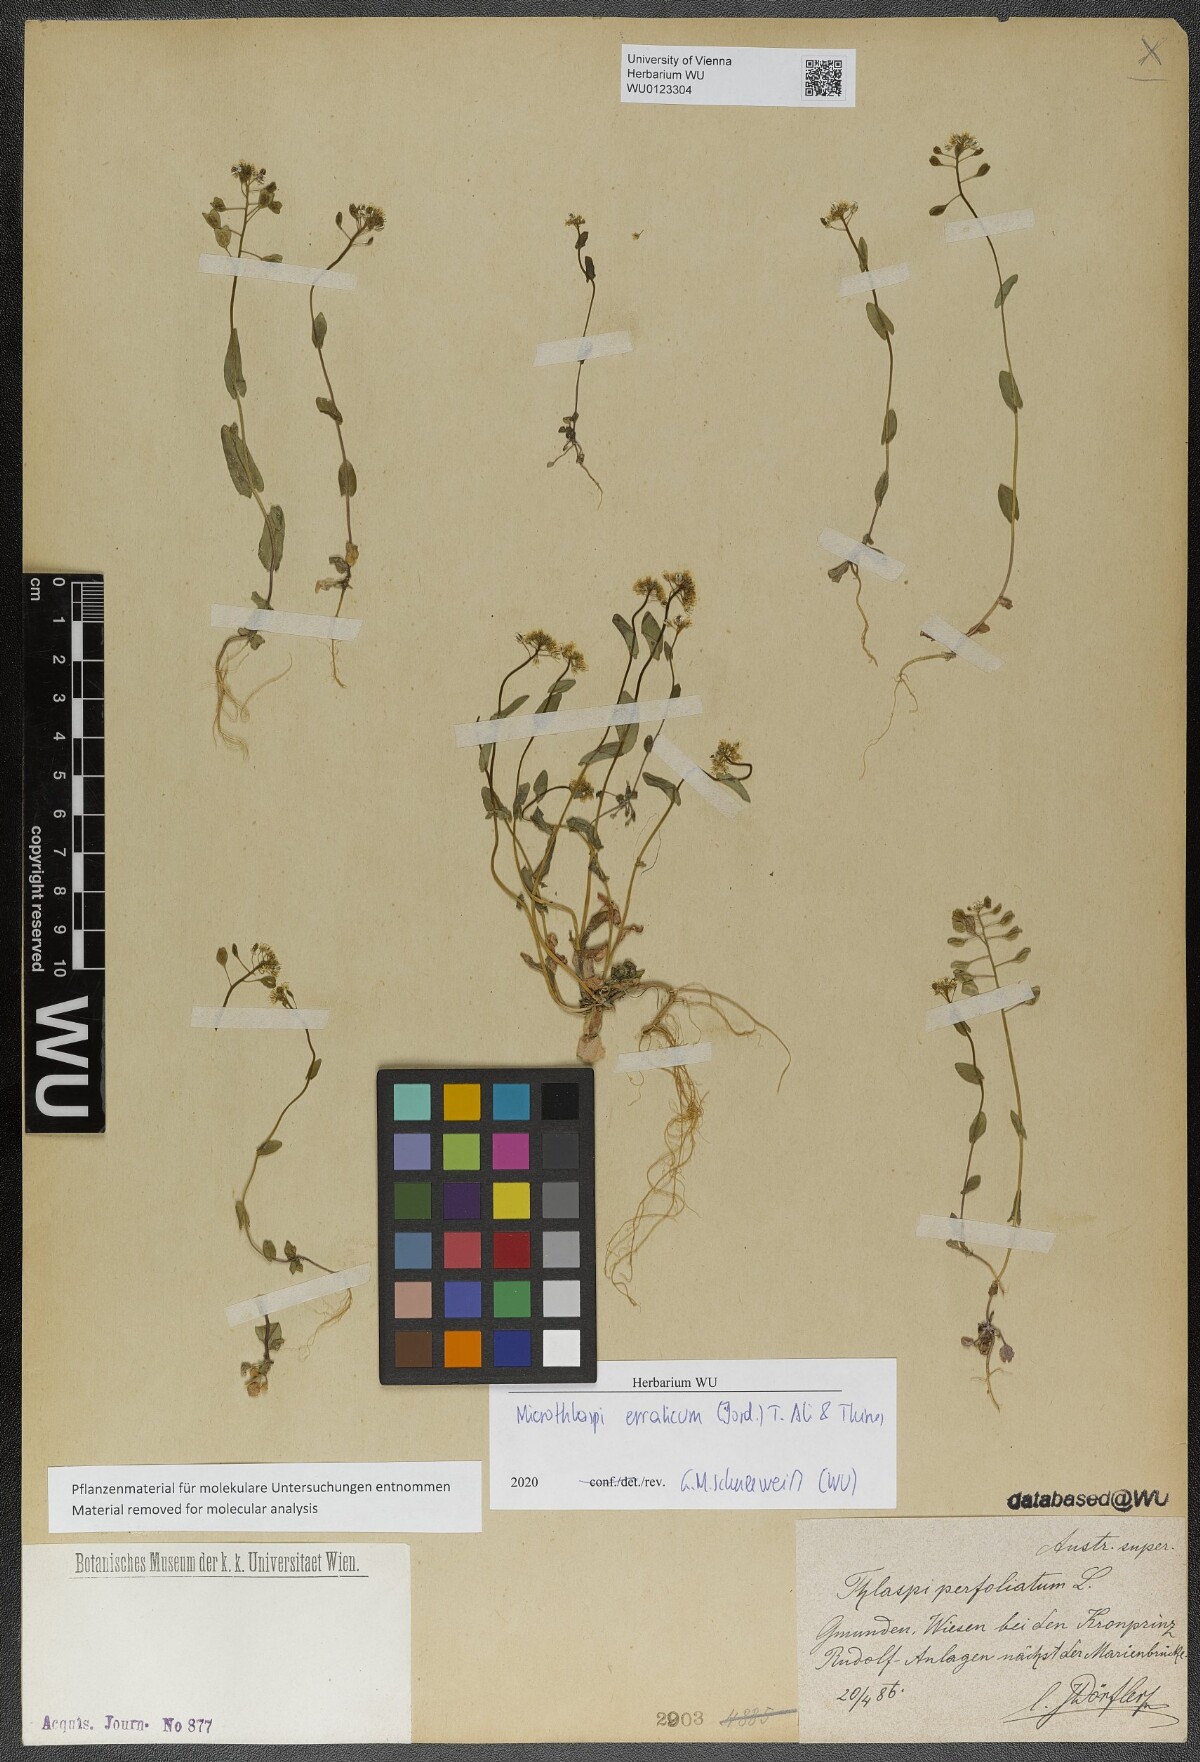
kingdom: Plantae
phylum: Tracheophyta
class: Magnoliopsida
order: Brassicales
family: Brassicaceae
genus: Noccaea
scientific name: Noccaea perfoliata
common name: Perfoliate pennycress
